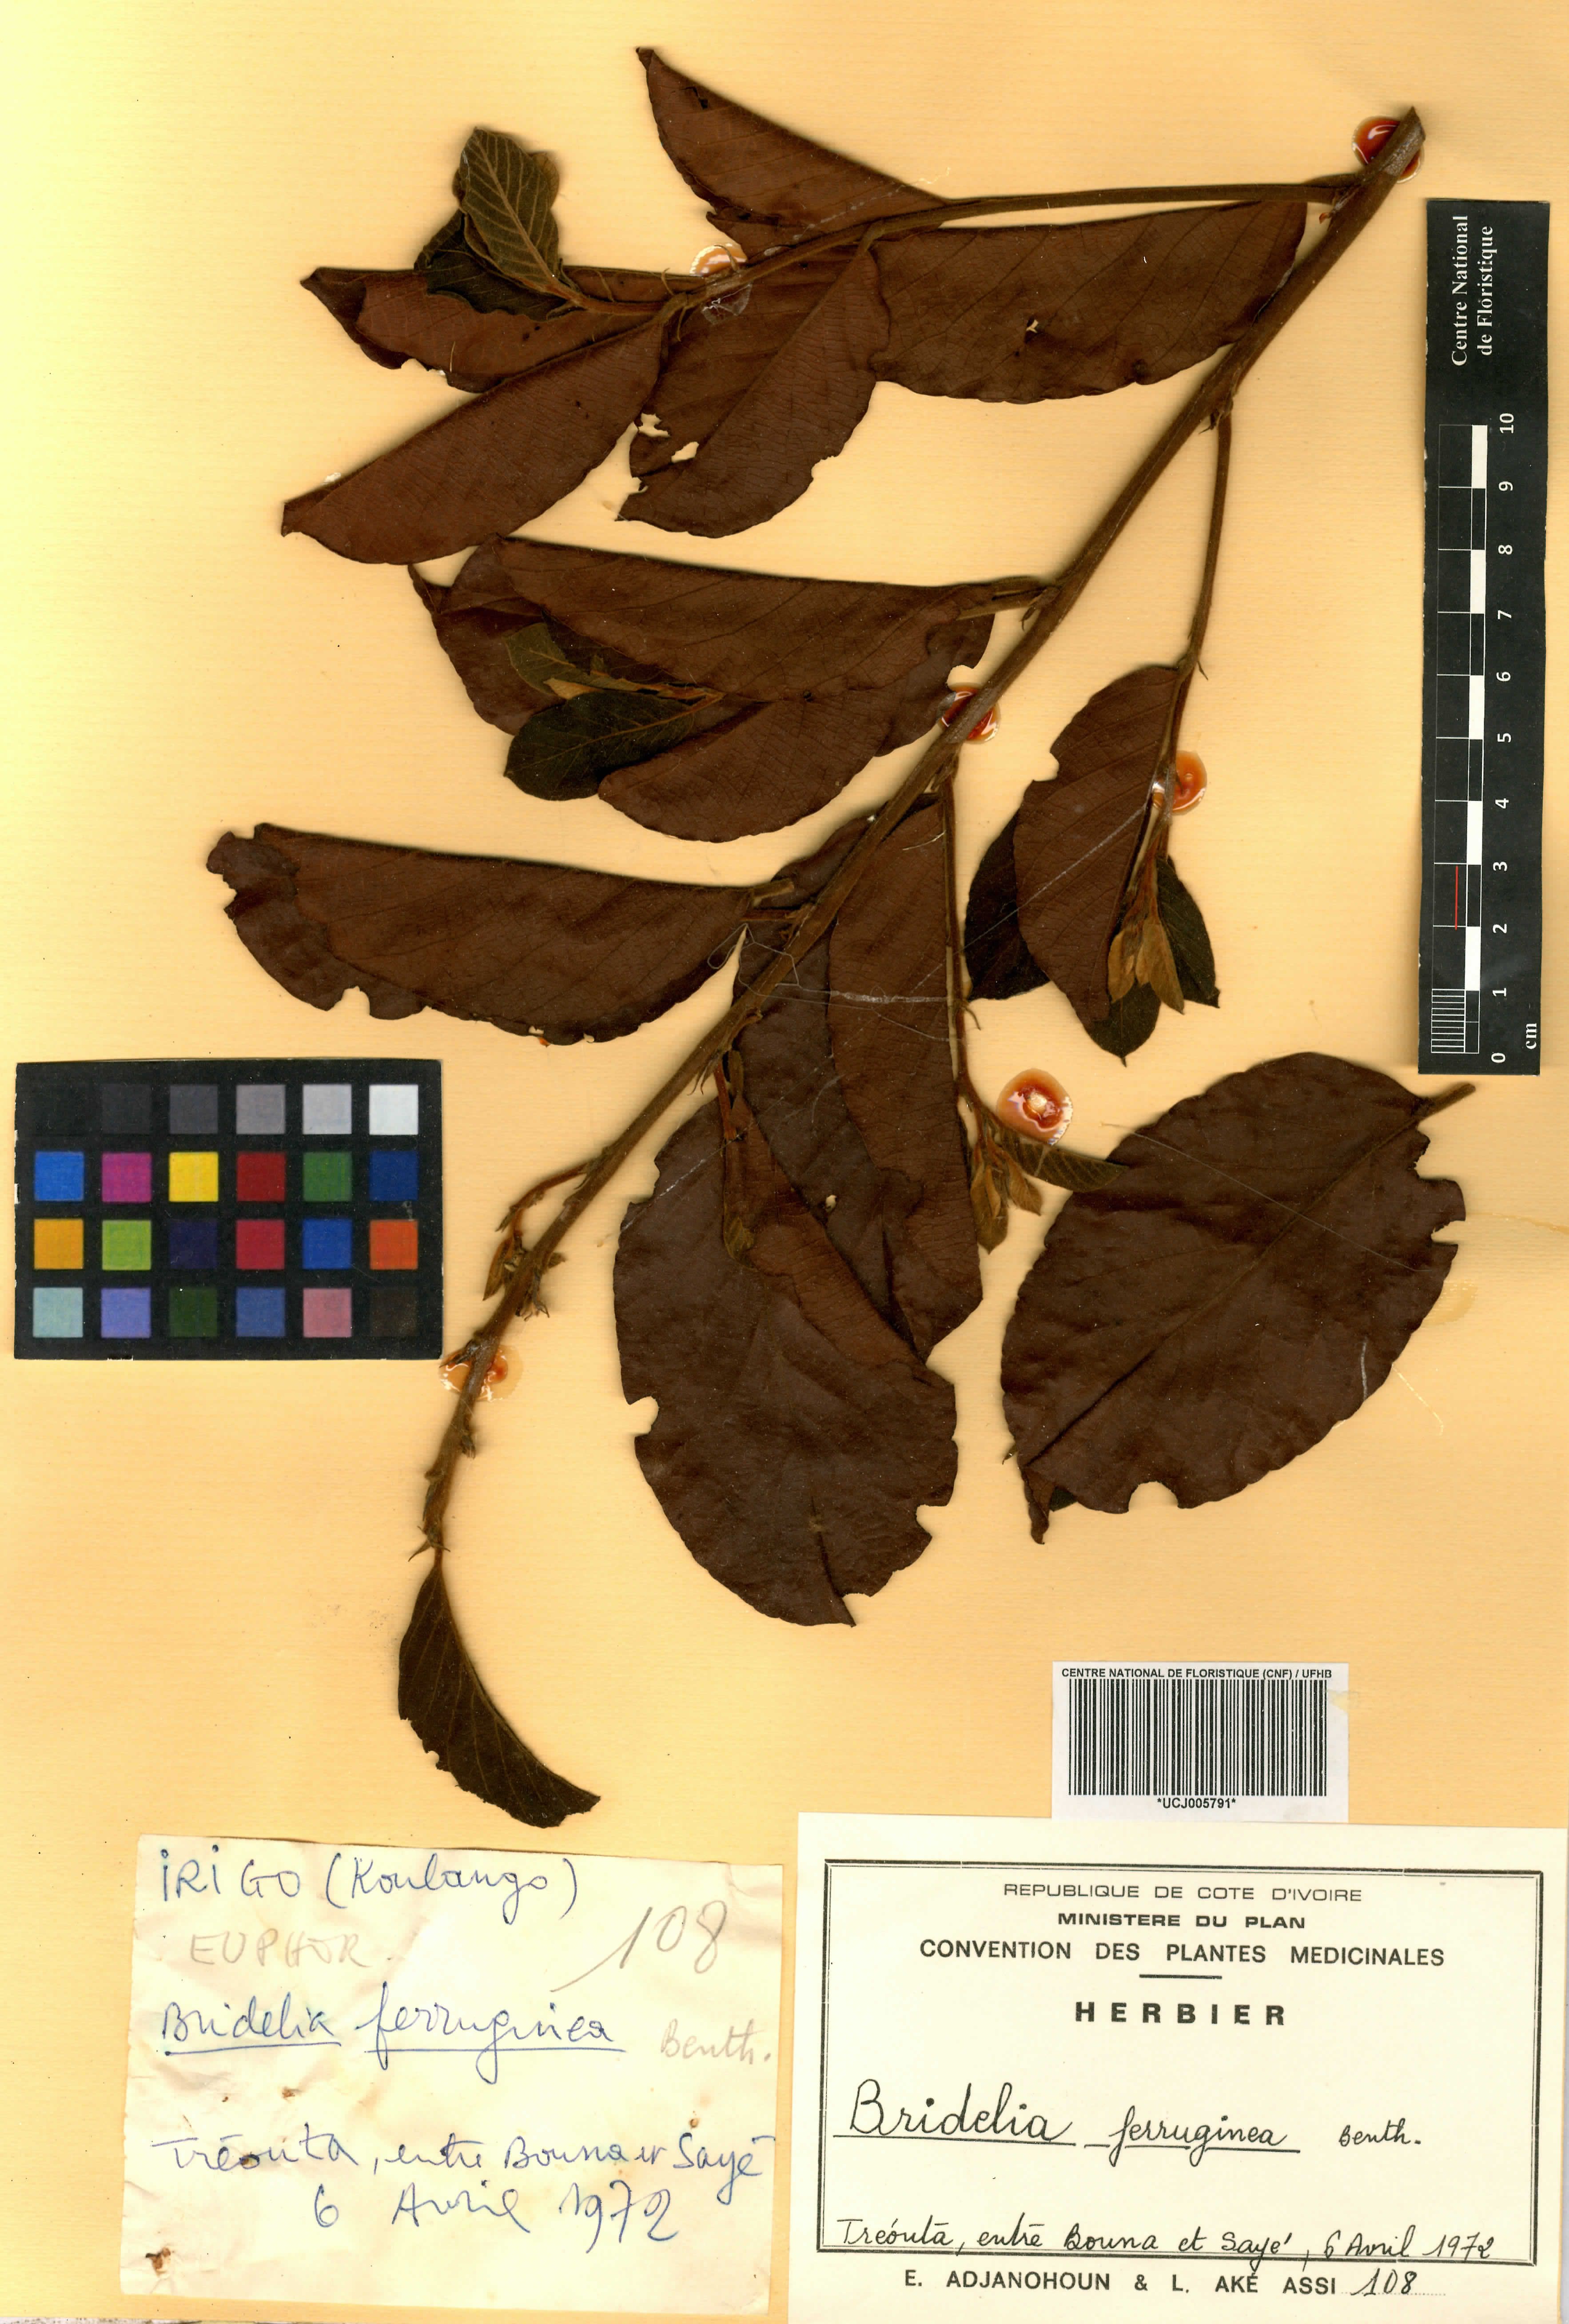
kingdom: Plantae
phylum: Tracheophyta
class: Magnoliopsida
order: Malpighiales
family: Phyllanthaceae
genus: Bridelia
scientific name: Bridelia ferruginea
